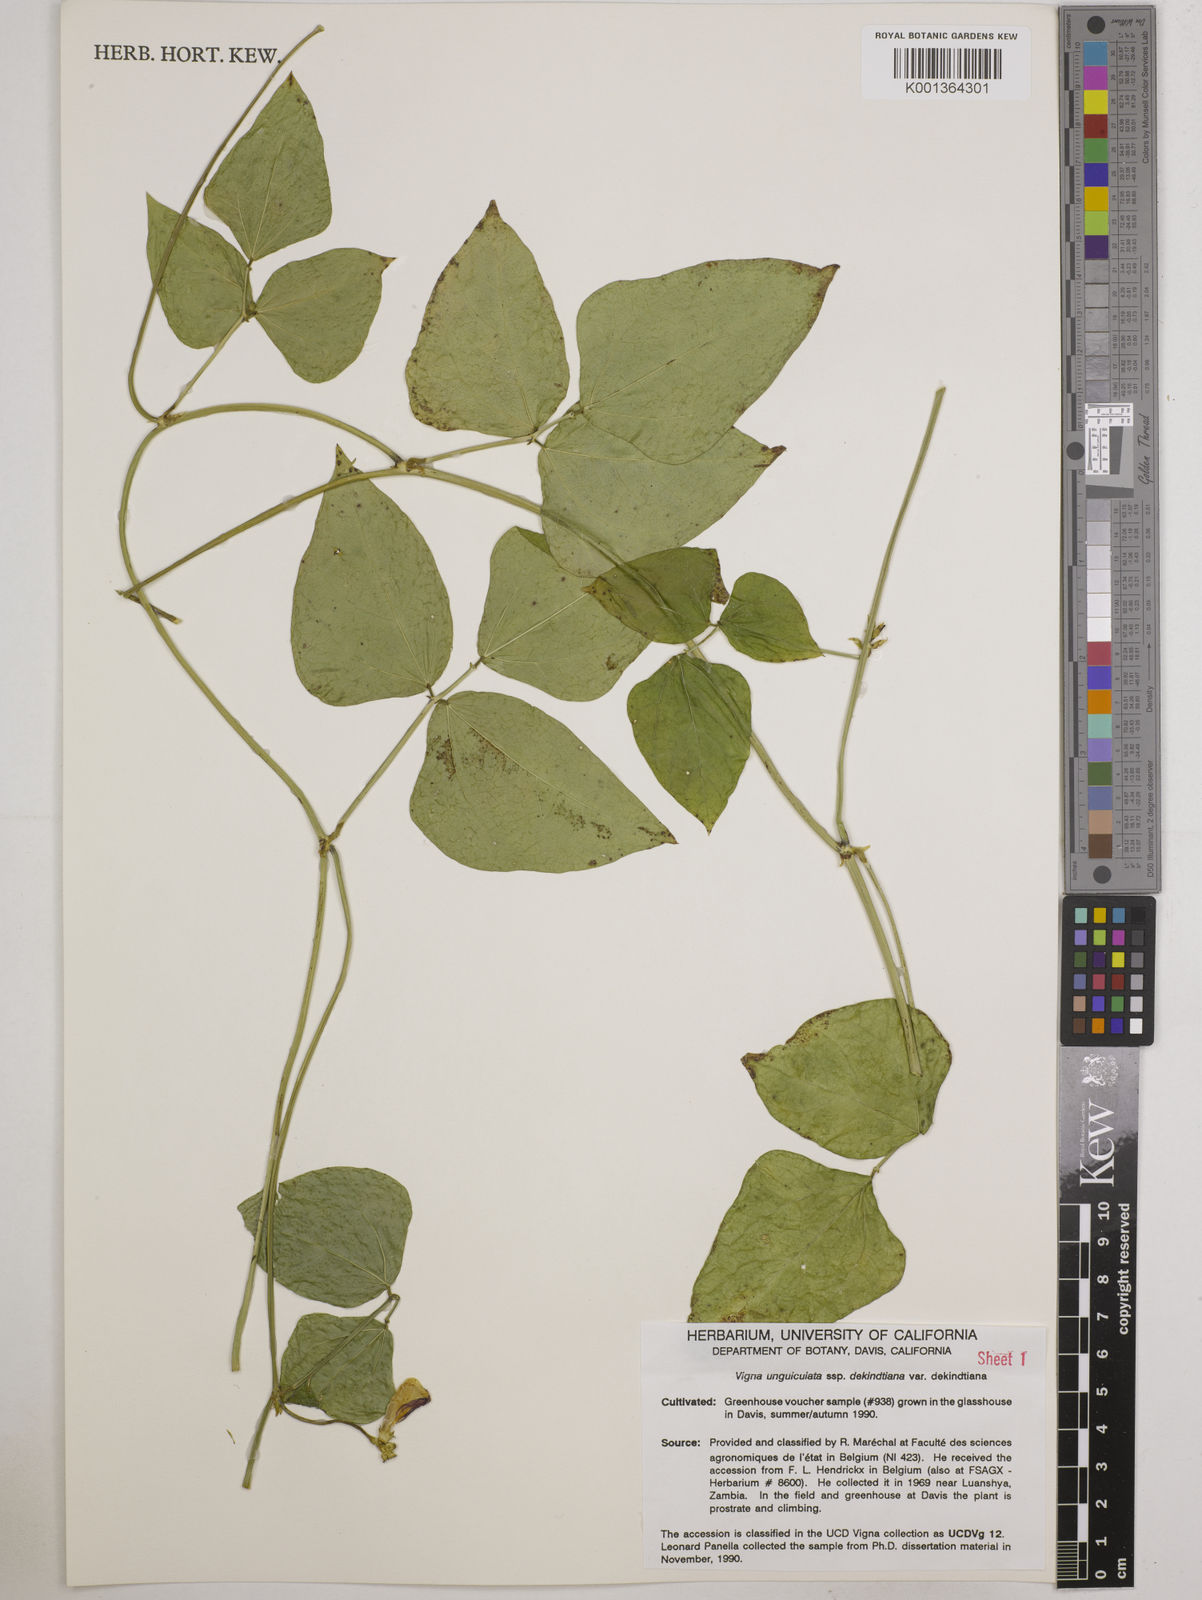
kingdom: Plantae
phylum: Tracheophyta
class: Magnoliopsida
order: Fabales
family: Fabaceae
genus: Vigna
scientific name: Vigna
